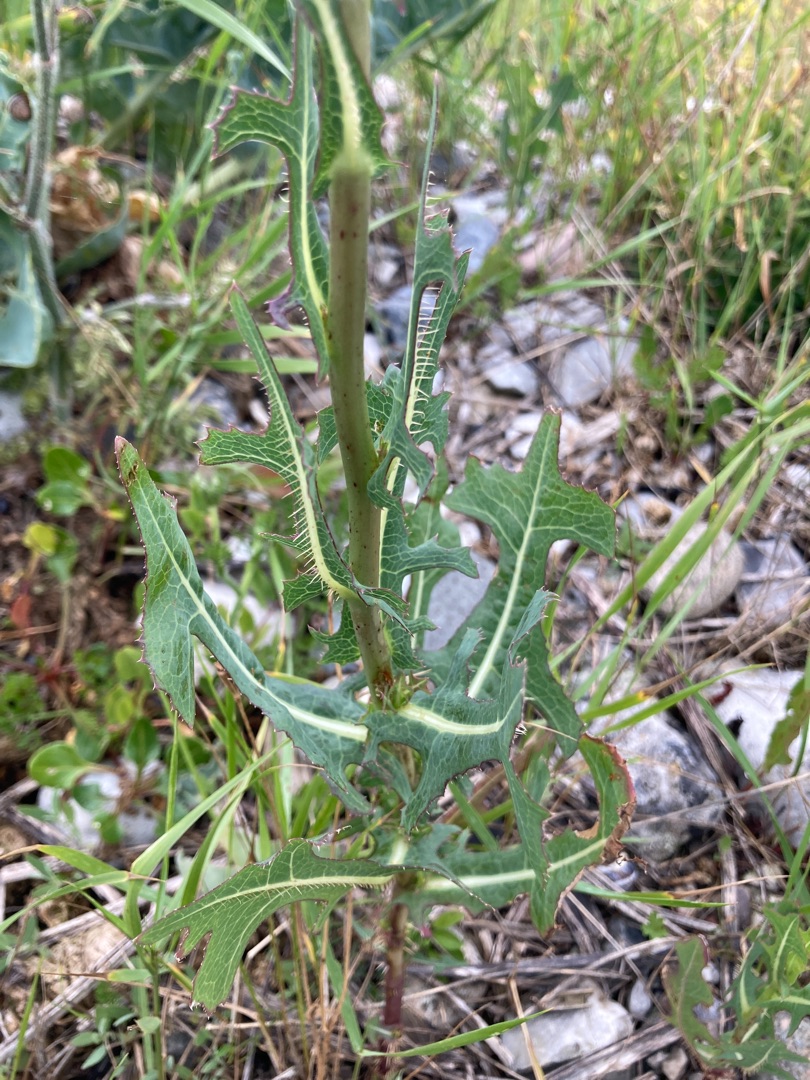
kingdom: Plantae
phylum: Tracheophyta
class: Magnoliopsida
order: Asterales
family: Asteraceae
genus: Lactuca
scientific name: Lactuca serriola
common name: Tornet salat
